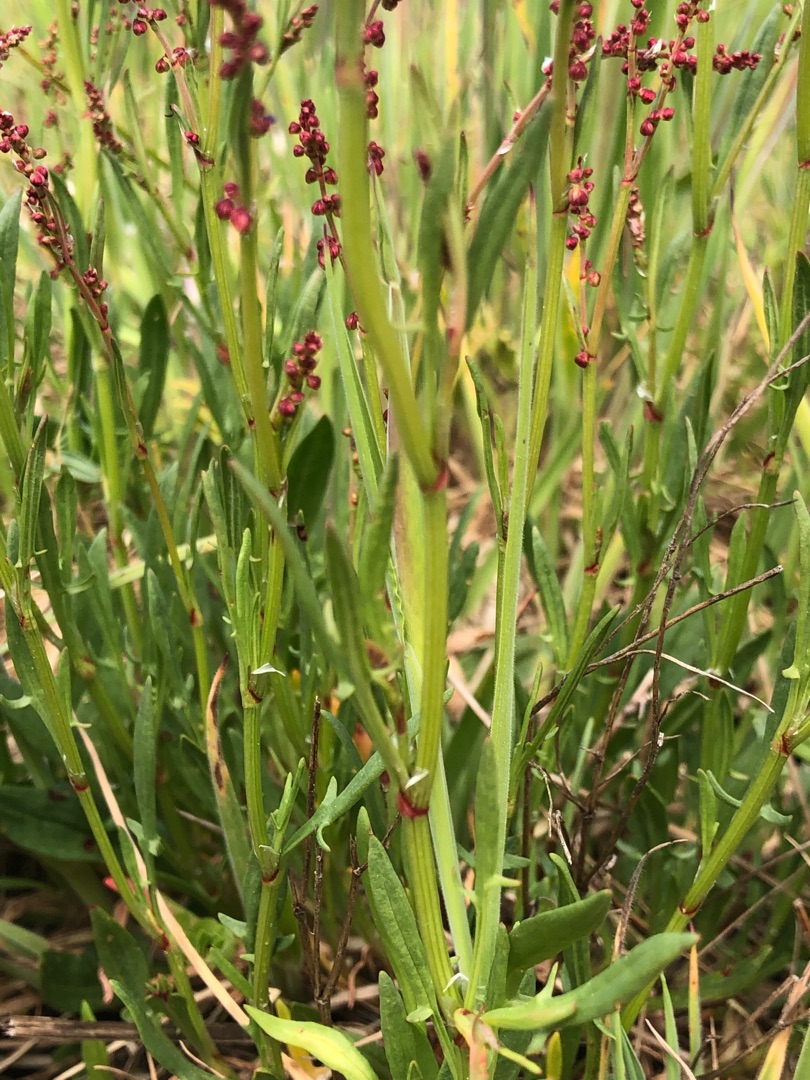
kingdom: Plantae
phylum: Tracheophyta
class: Magnoliopsida
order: Caryophyllales
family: Polygonaceae
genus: Rumex
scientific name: Rumex acetosella
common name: Rødknæ
